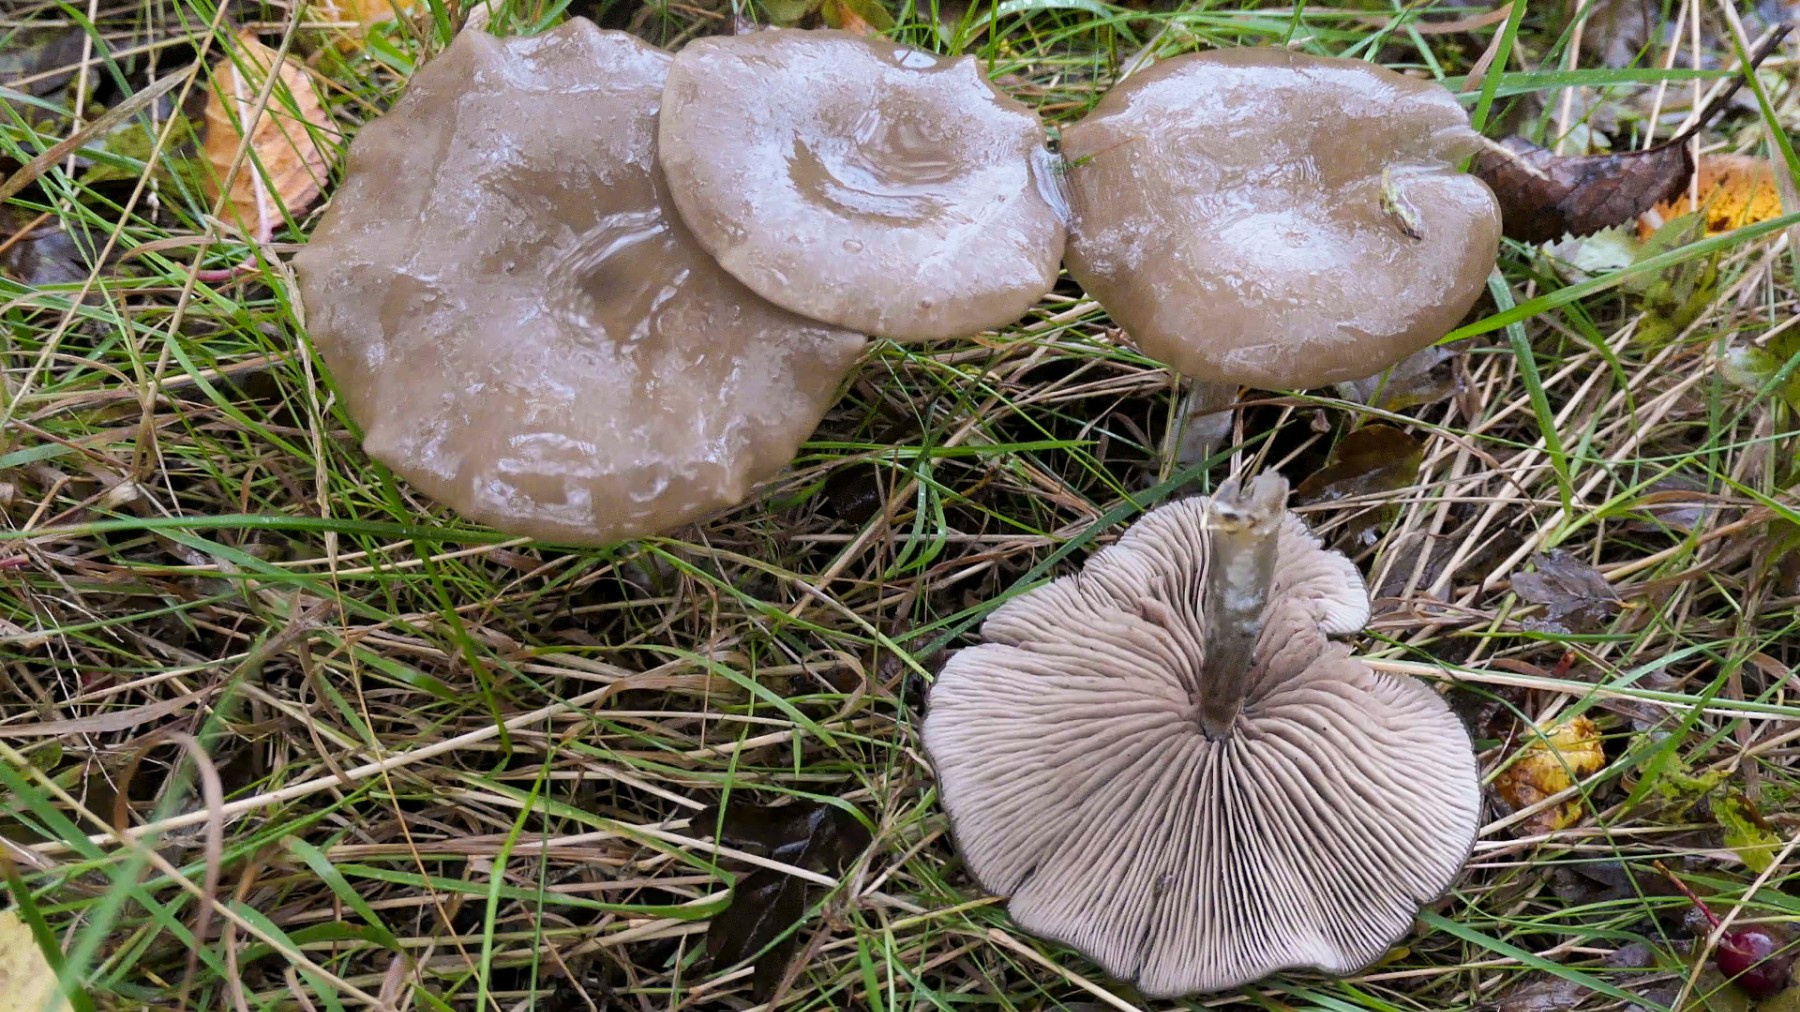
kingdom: Fungi
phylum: Basidiomycota
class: Agaricomycetes
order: Agaricales
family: Entolomataceae
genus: Entoloma
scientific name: Entoloma
